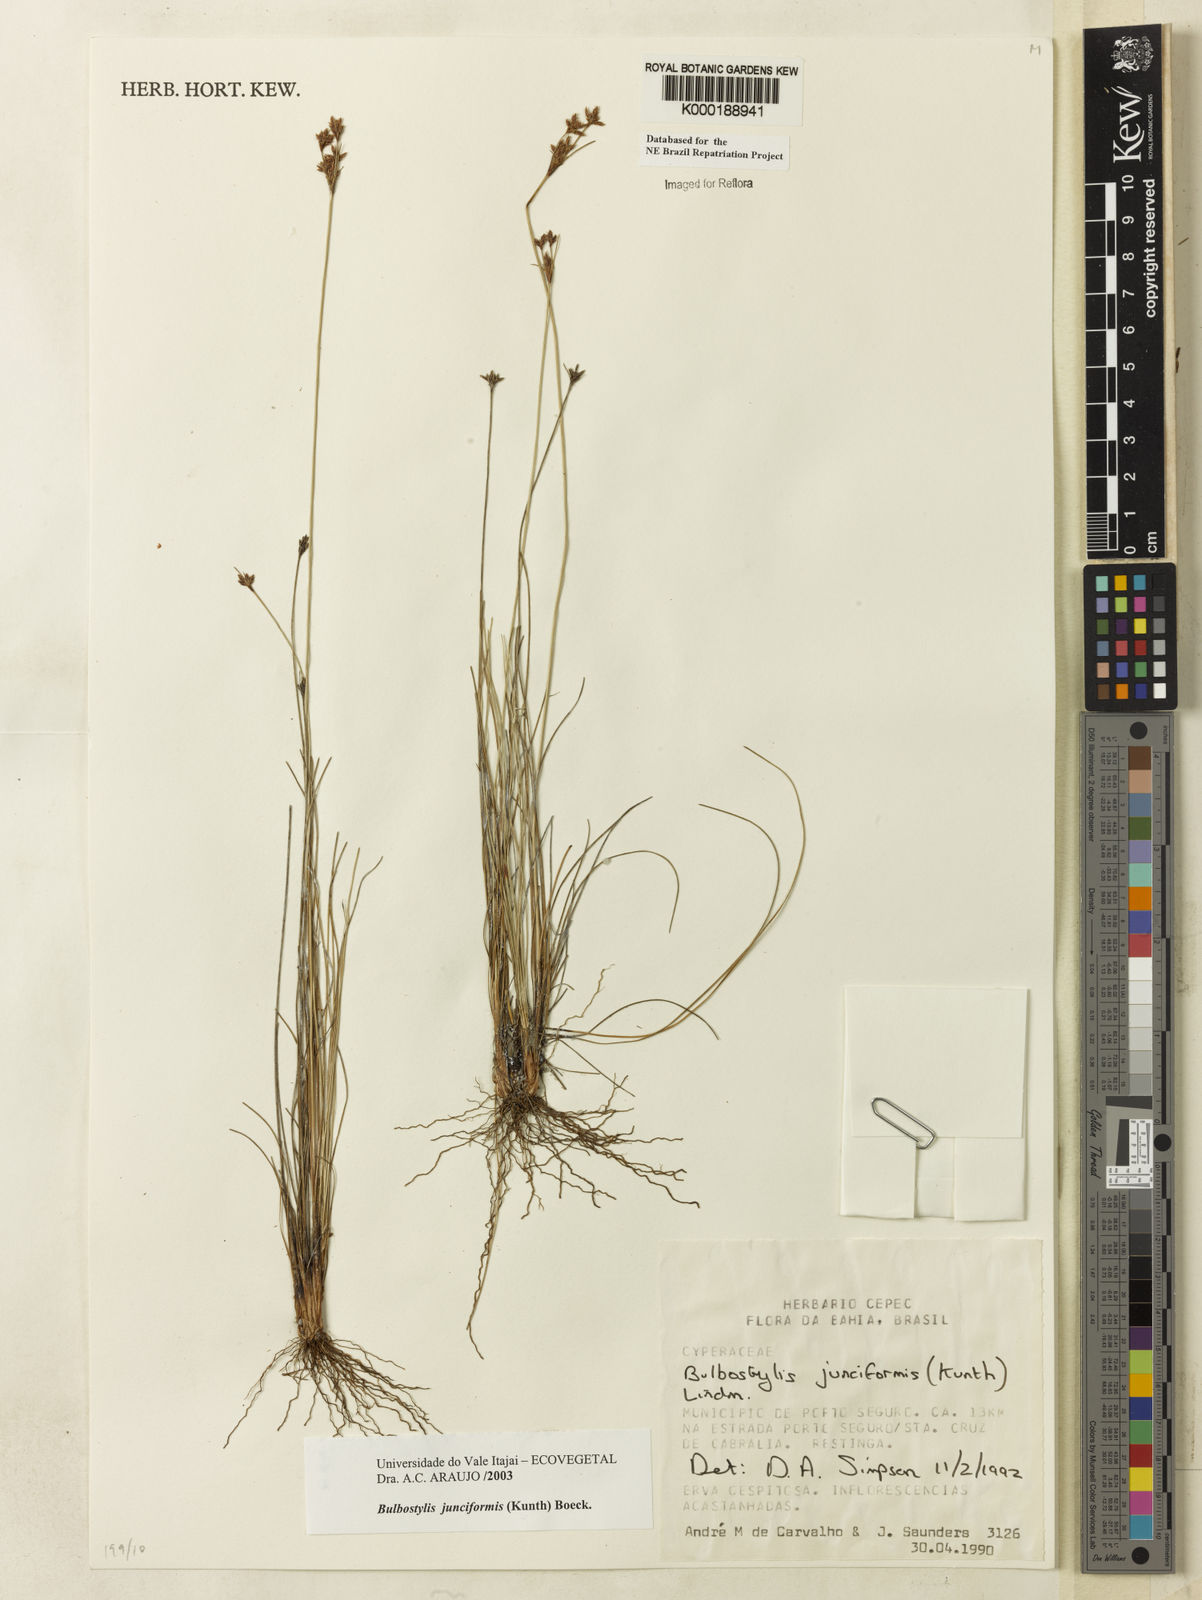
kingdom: Plantae
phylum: Tracheophyta
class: Liliopsida
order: Poales
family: Cyperaceae
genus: Bulbostylis
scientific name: Bulbostylis
